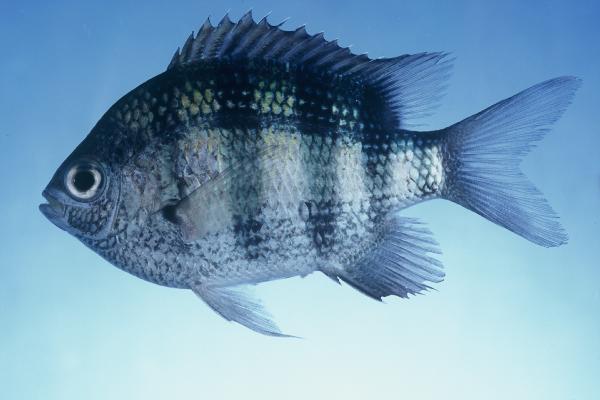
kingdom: Animalia
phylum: Chordata
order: Perciformes
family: Pomacentridae
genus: Abudefduf
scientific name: Abudefduf vaigiensis
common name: Indo-pacific sergeant
